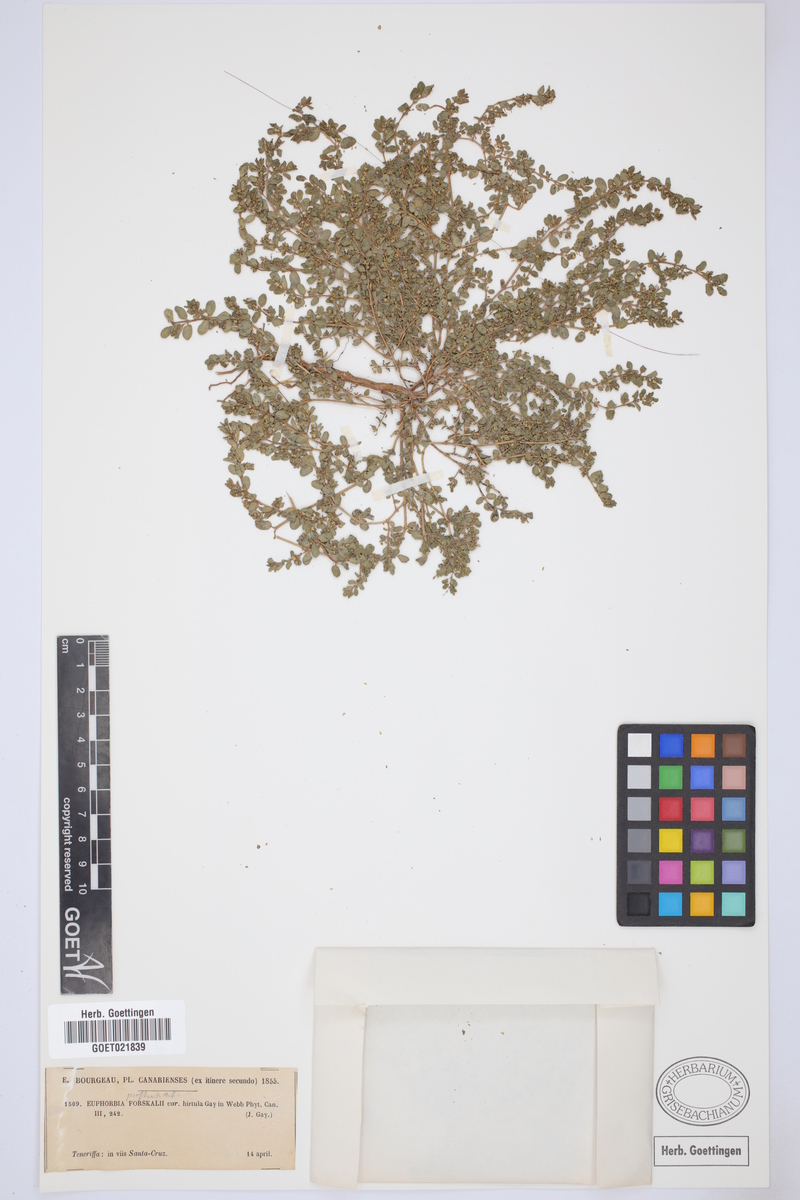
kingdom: Plantae
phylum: Tracheophyta
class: Magnoliopsida
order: Malpighiales
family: Euphorbiaceae
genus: Euphorbia
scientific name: Euphorbia prostrata
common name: Prostrate sandmat
